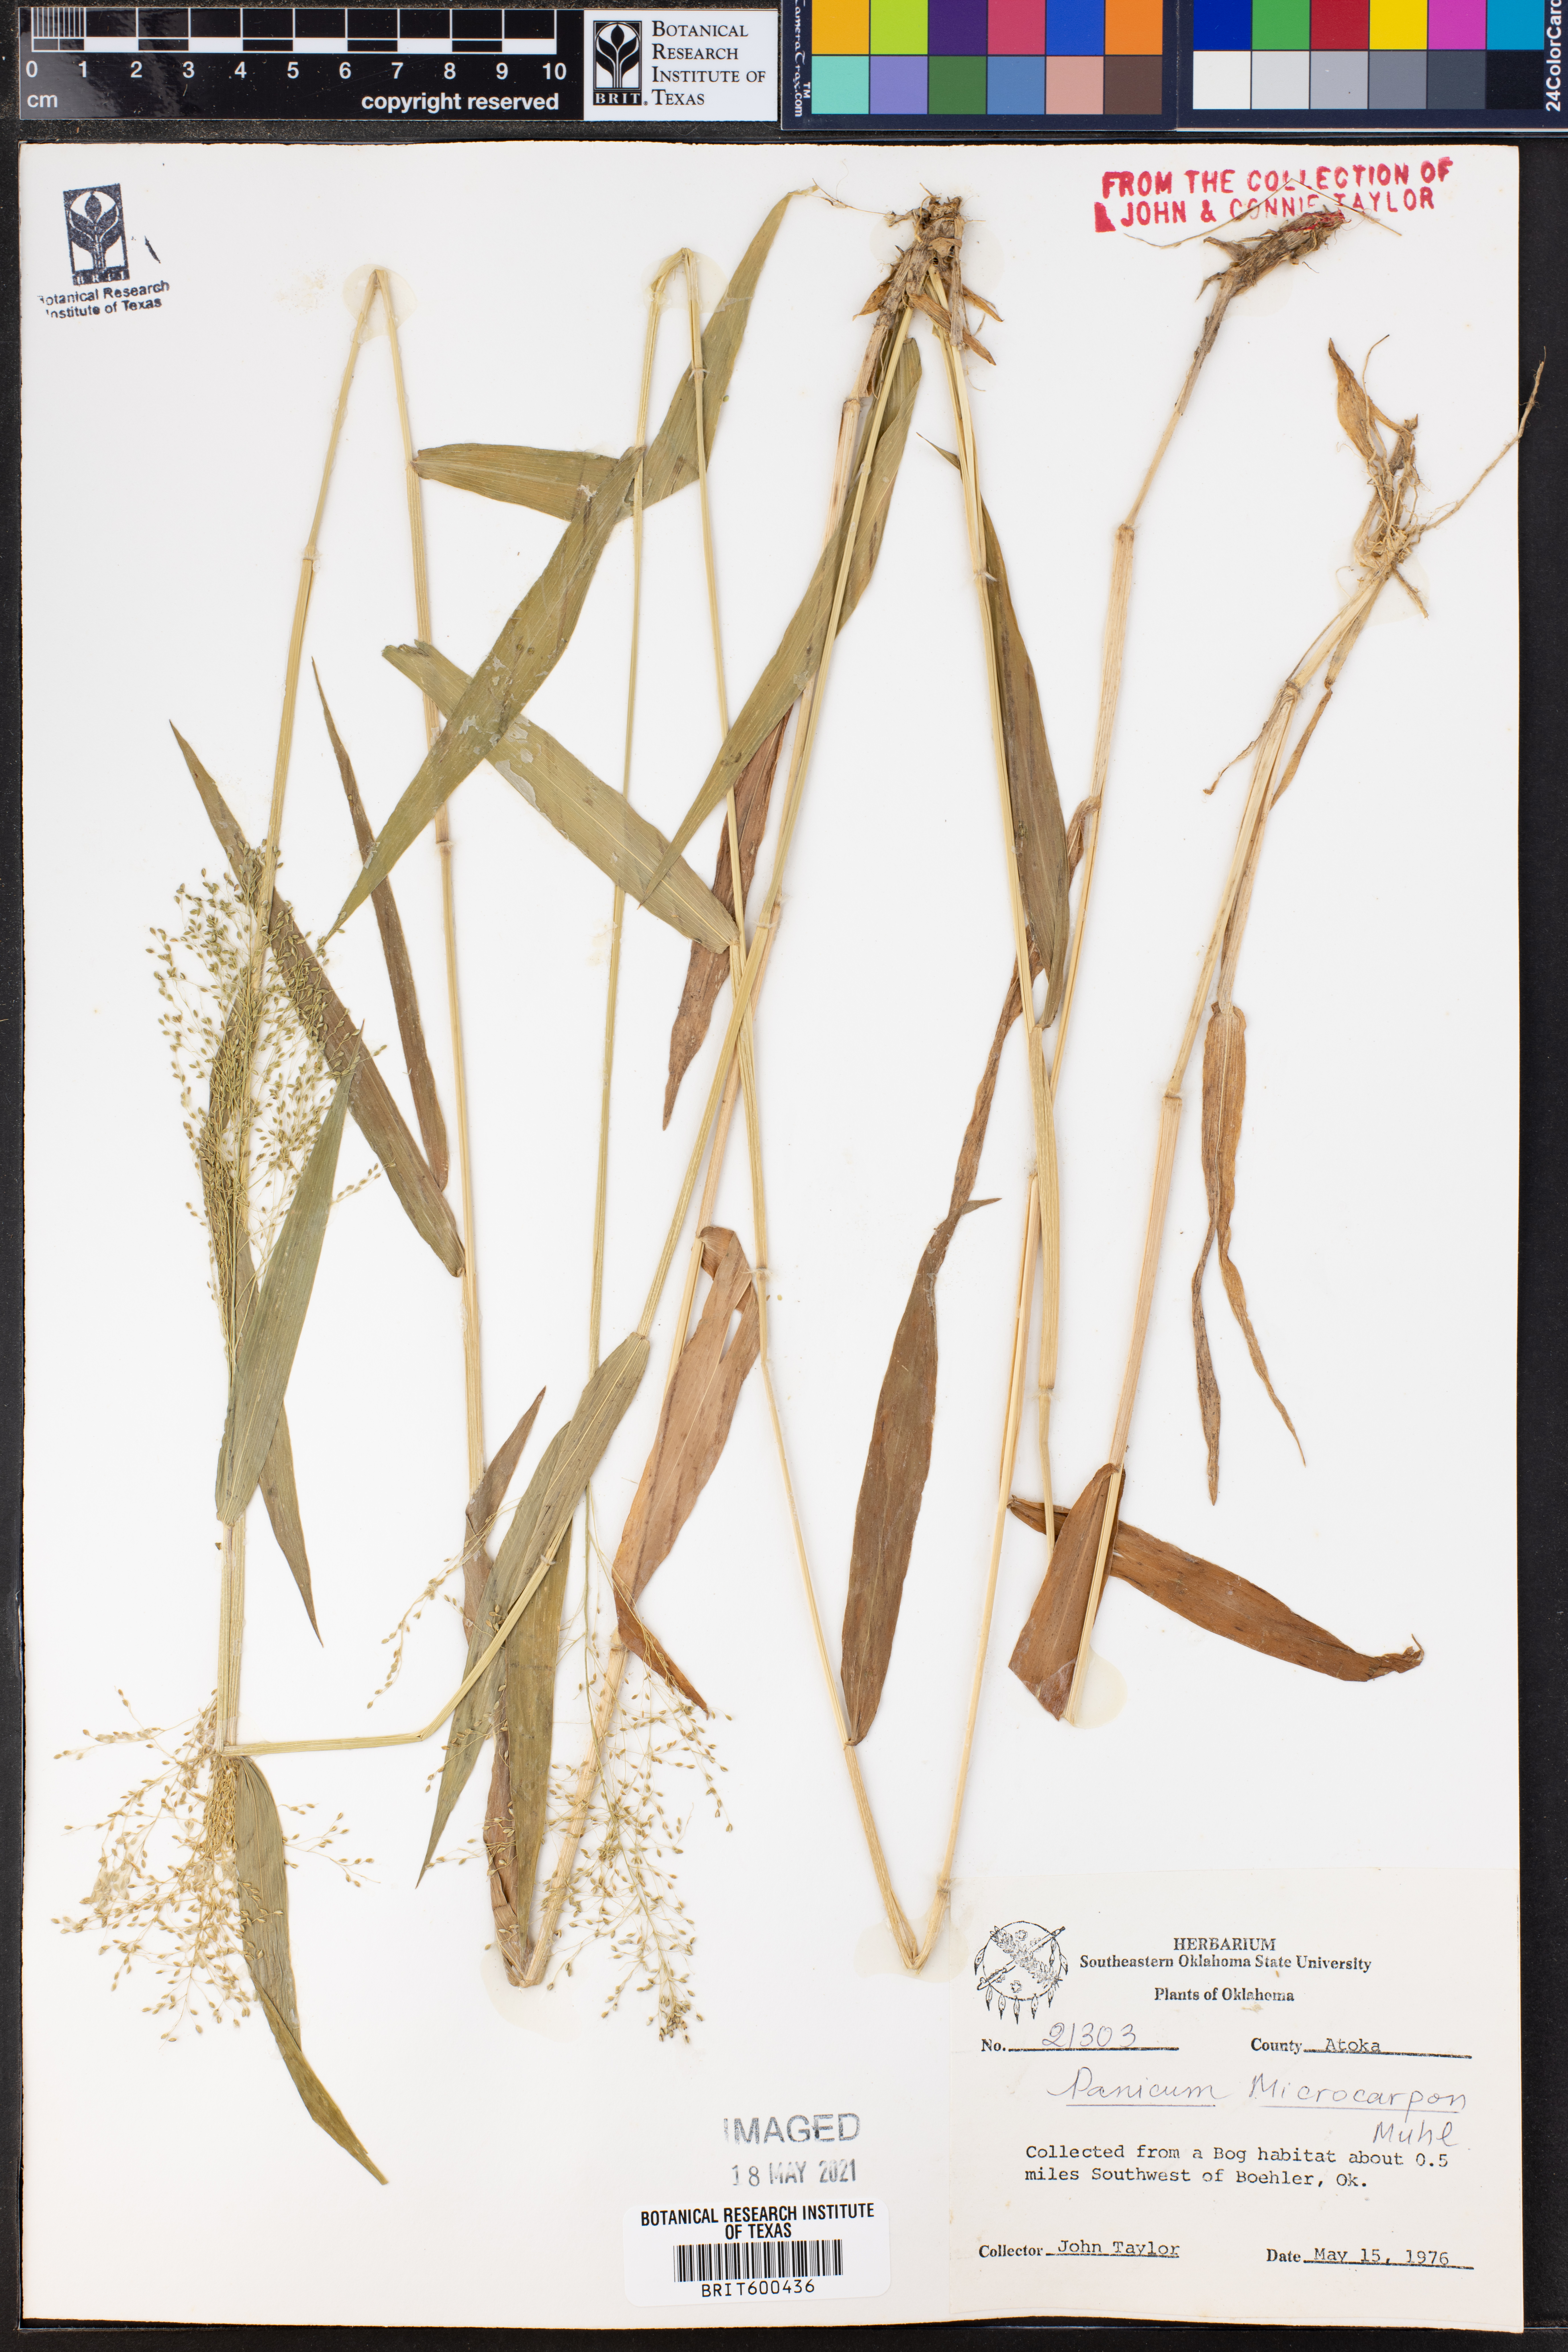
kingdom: Plantae
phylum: Tracheophyta
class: Liliopsida
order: Poales
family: Poaceae
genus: Dichanthelium
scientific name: Dichanthelium polyanthes
